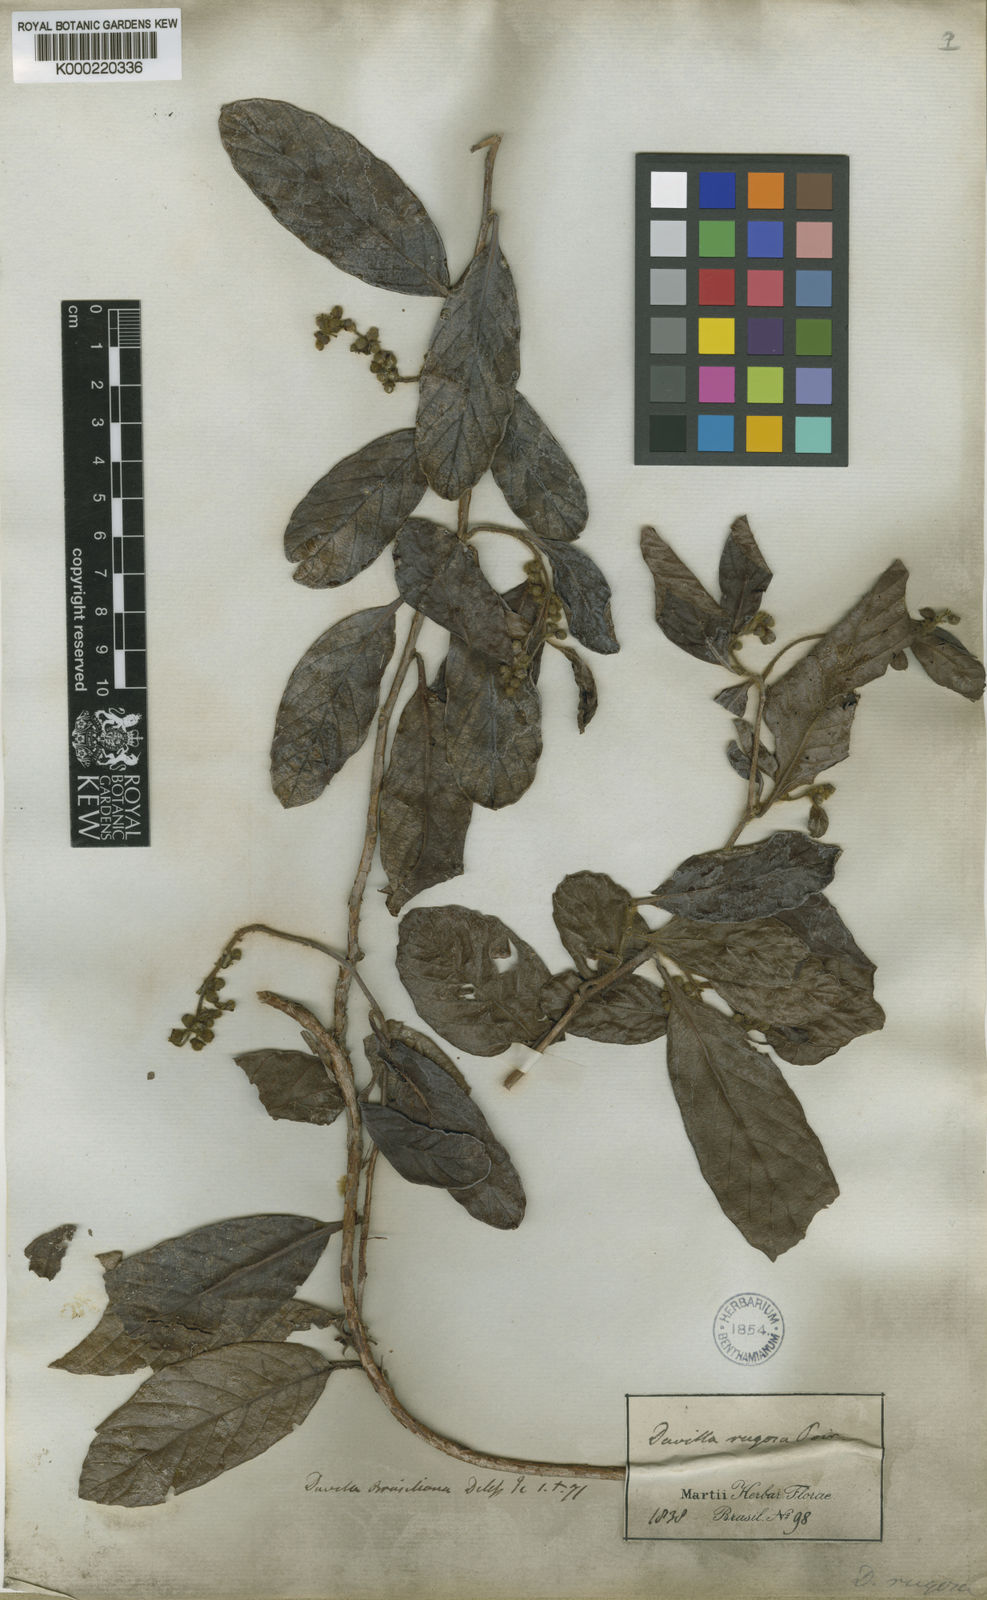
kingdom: Plantae
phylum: Tracheophyta
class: Magnoliopsida
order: Dilleniales
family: Dilleniaceae
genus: Davilla
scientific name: Davilla rugosa
